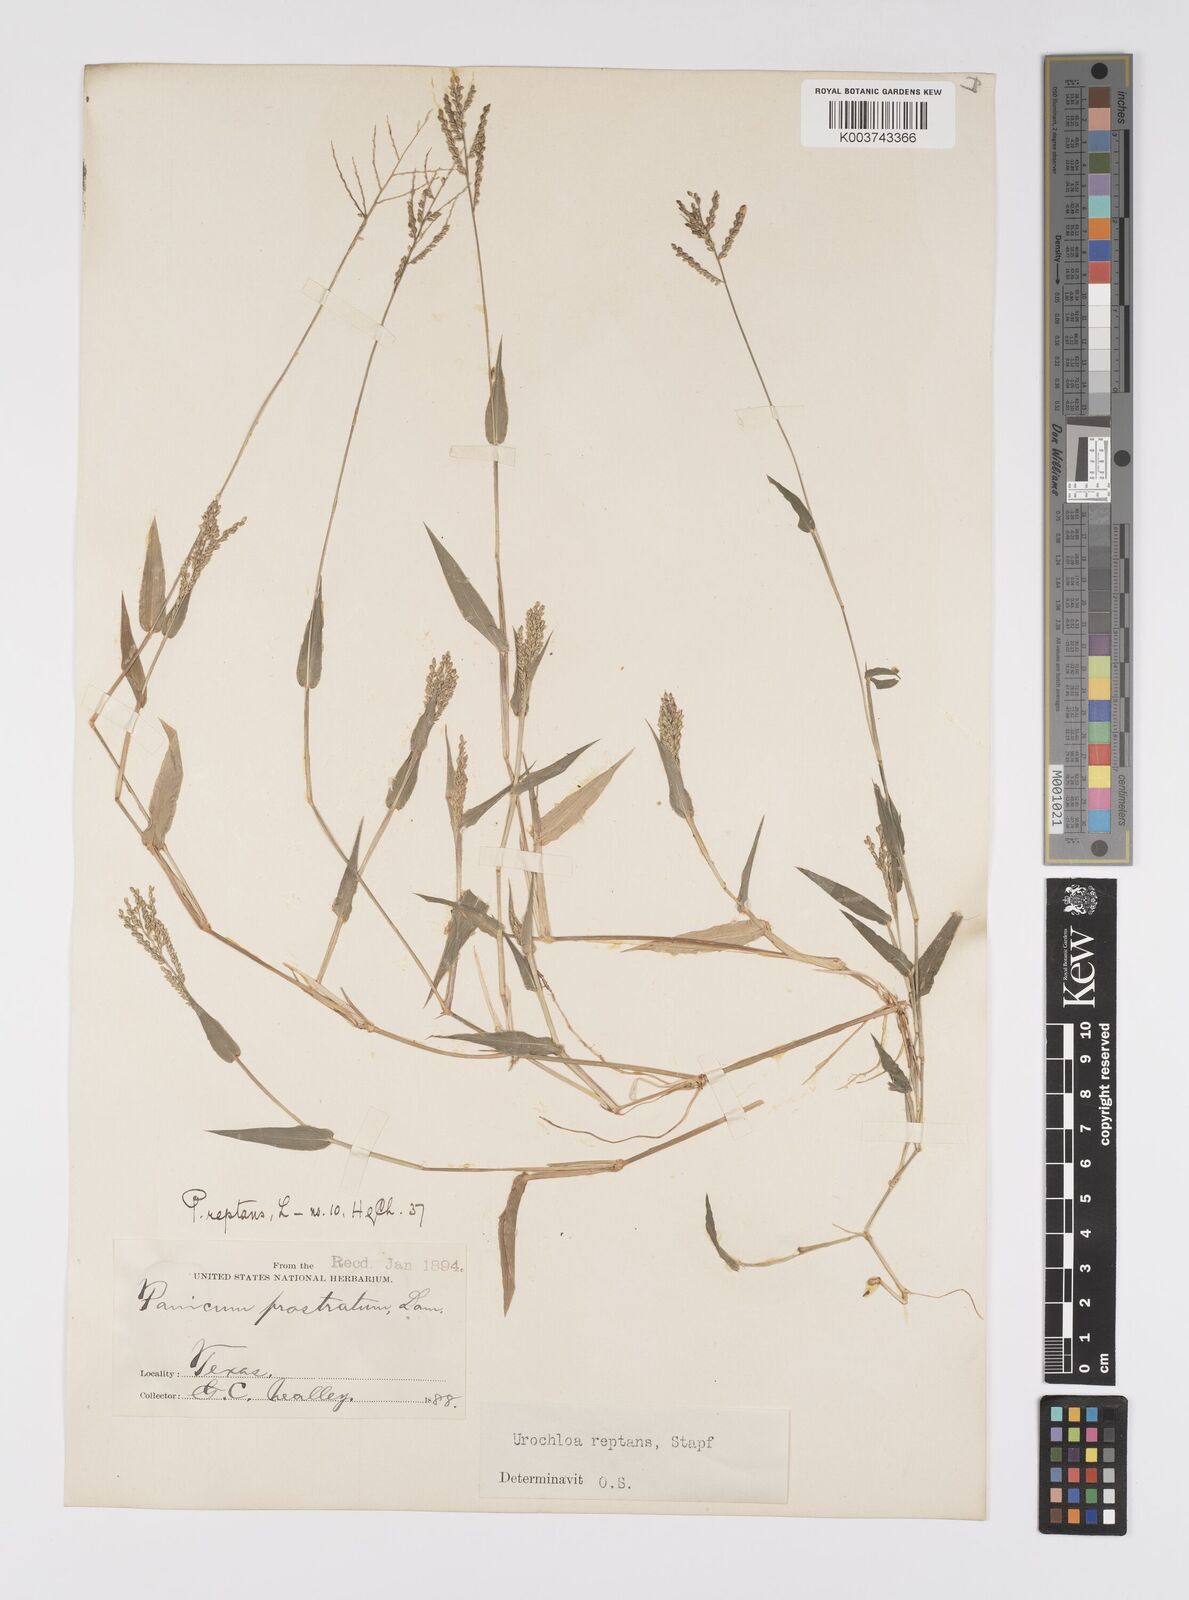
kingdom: Plantae
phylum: Tracheophyta
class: Liliopsida
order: Poales
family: Poaceae
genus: Urochloa
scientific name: Urochloa reptans
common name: Sprawling signalgrass
